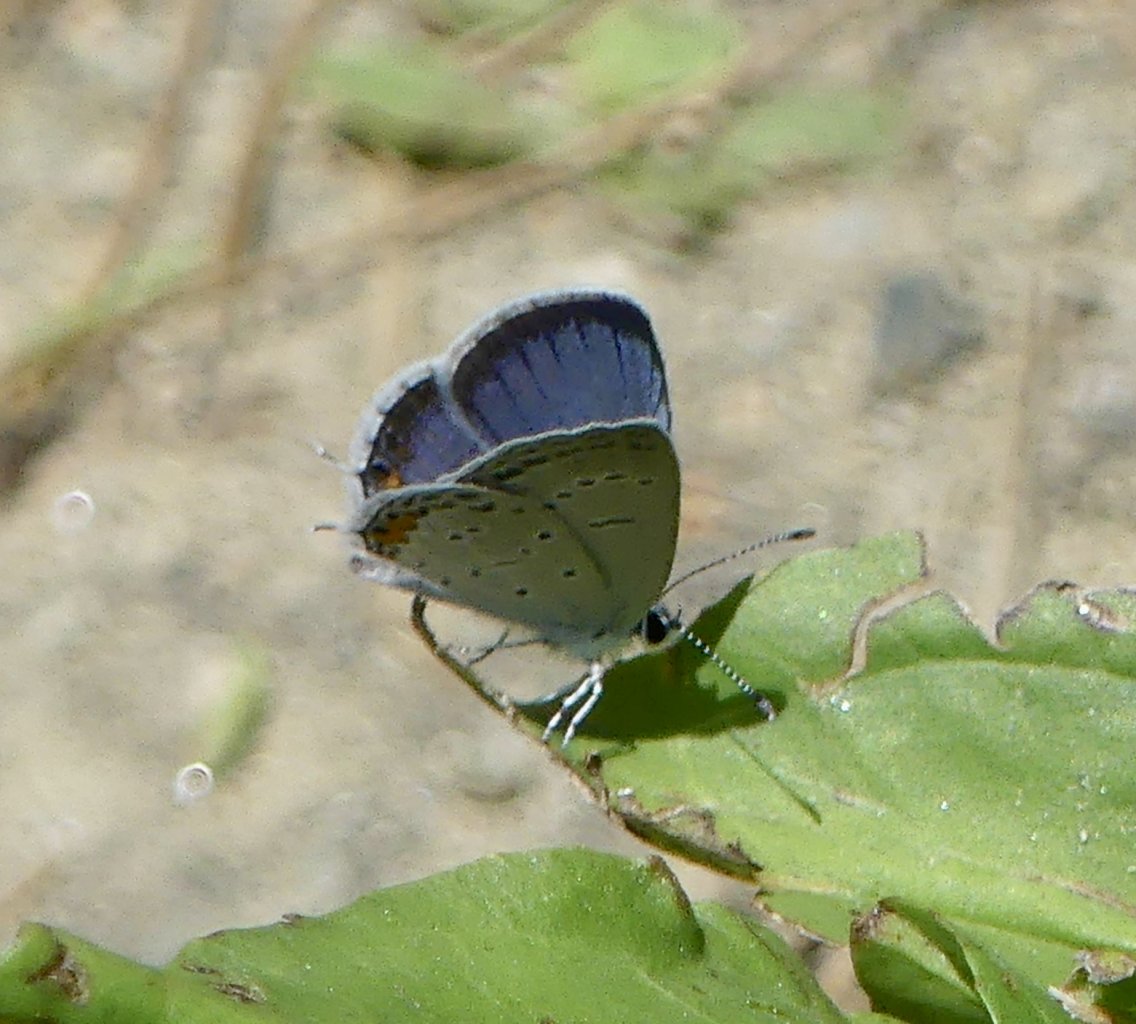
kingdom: Animalia
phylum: Arthropoda
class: Insecta
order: Lepidoptera
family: Lycaenidae
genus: Elkalyce
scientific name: Elkalyce comyntas
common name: Eastern Tailed-Blue
